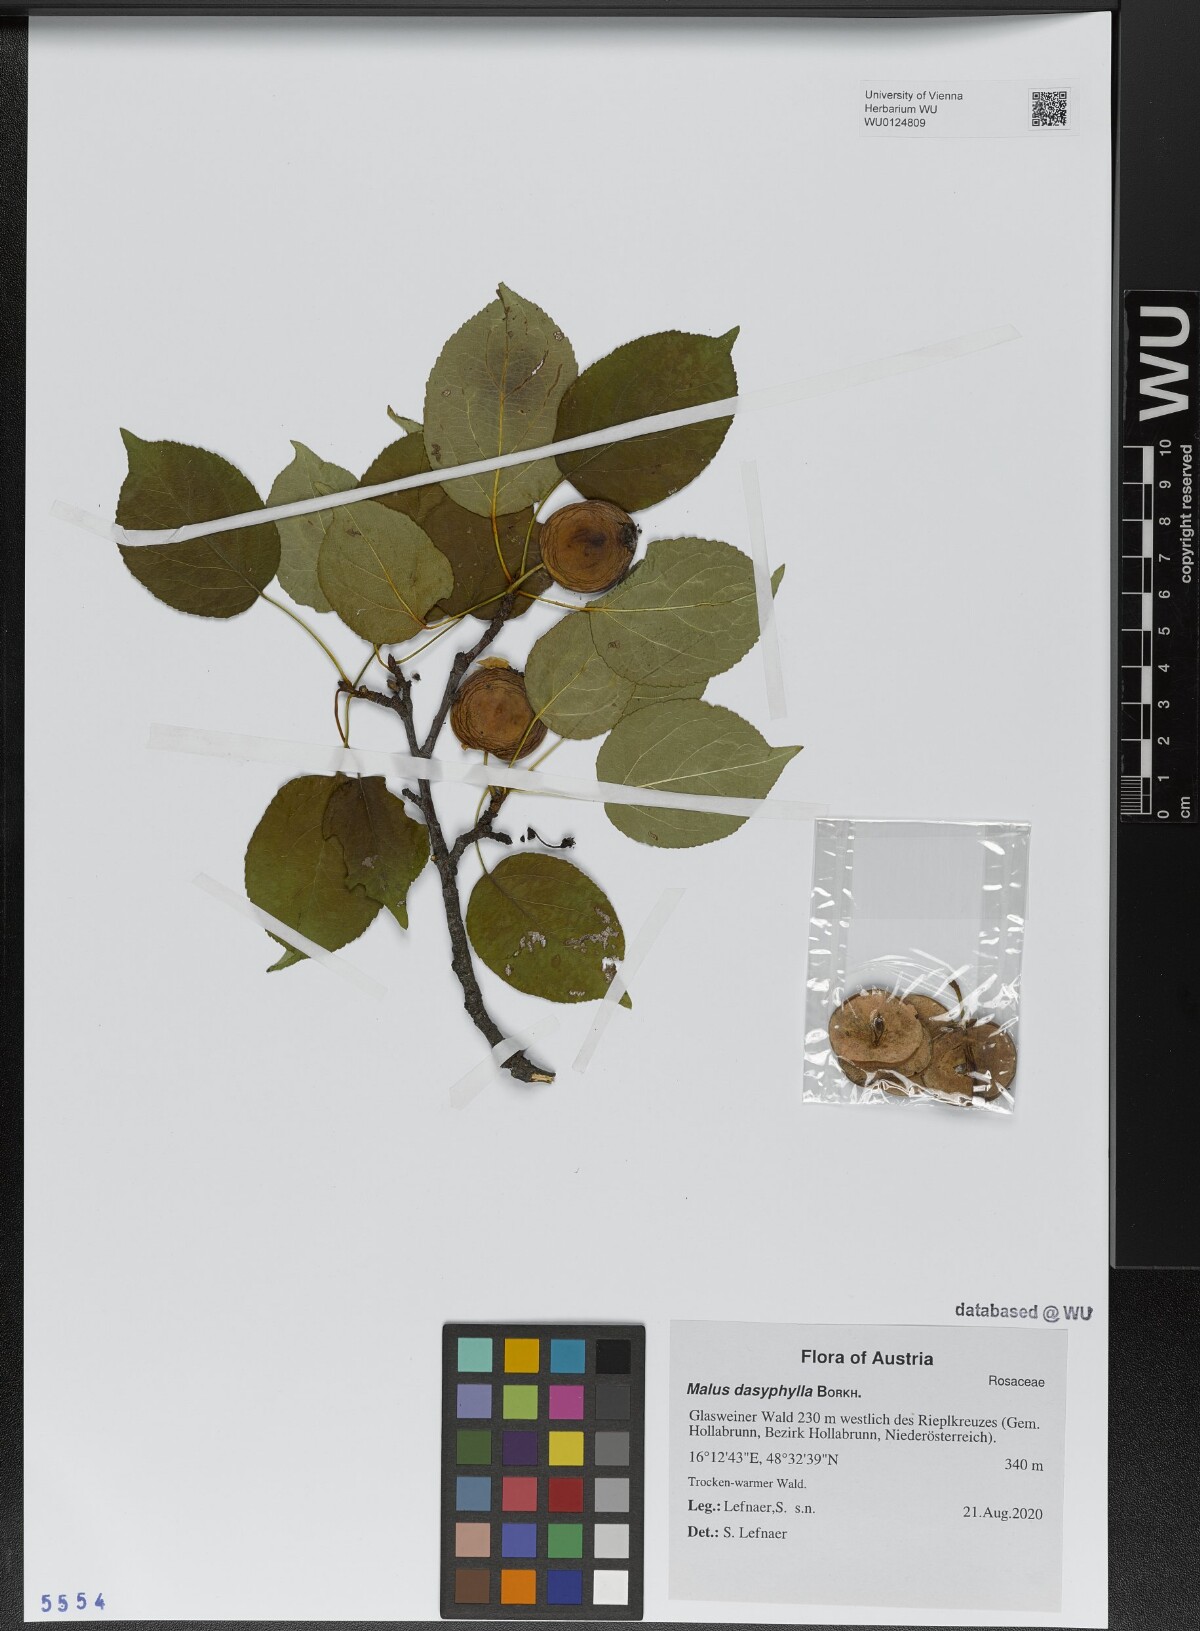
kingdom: Plantae
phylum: Tracheophyta
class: Magnoliopsida
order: Rosales
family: Rosaceae
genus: Malus
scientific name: Malus dasyphylla
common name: Paradise apple
